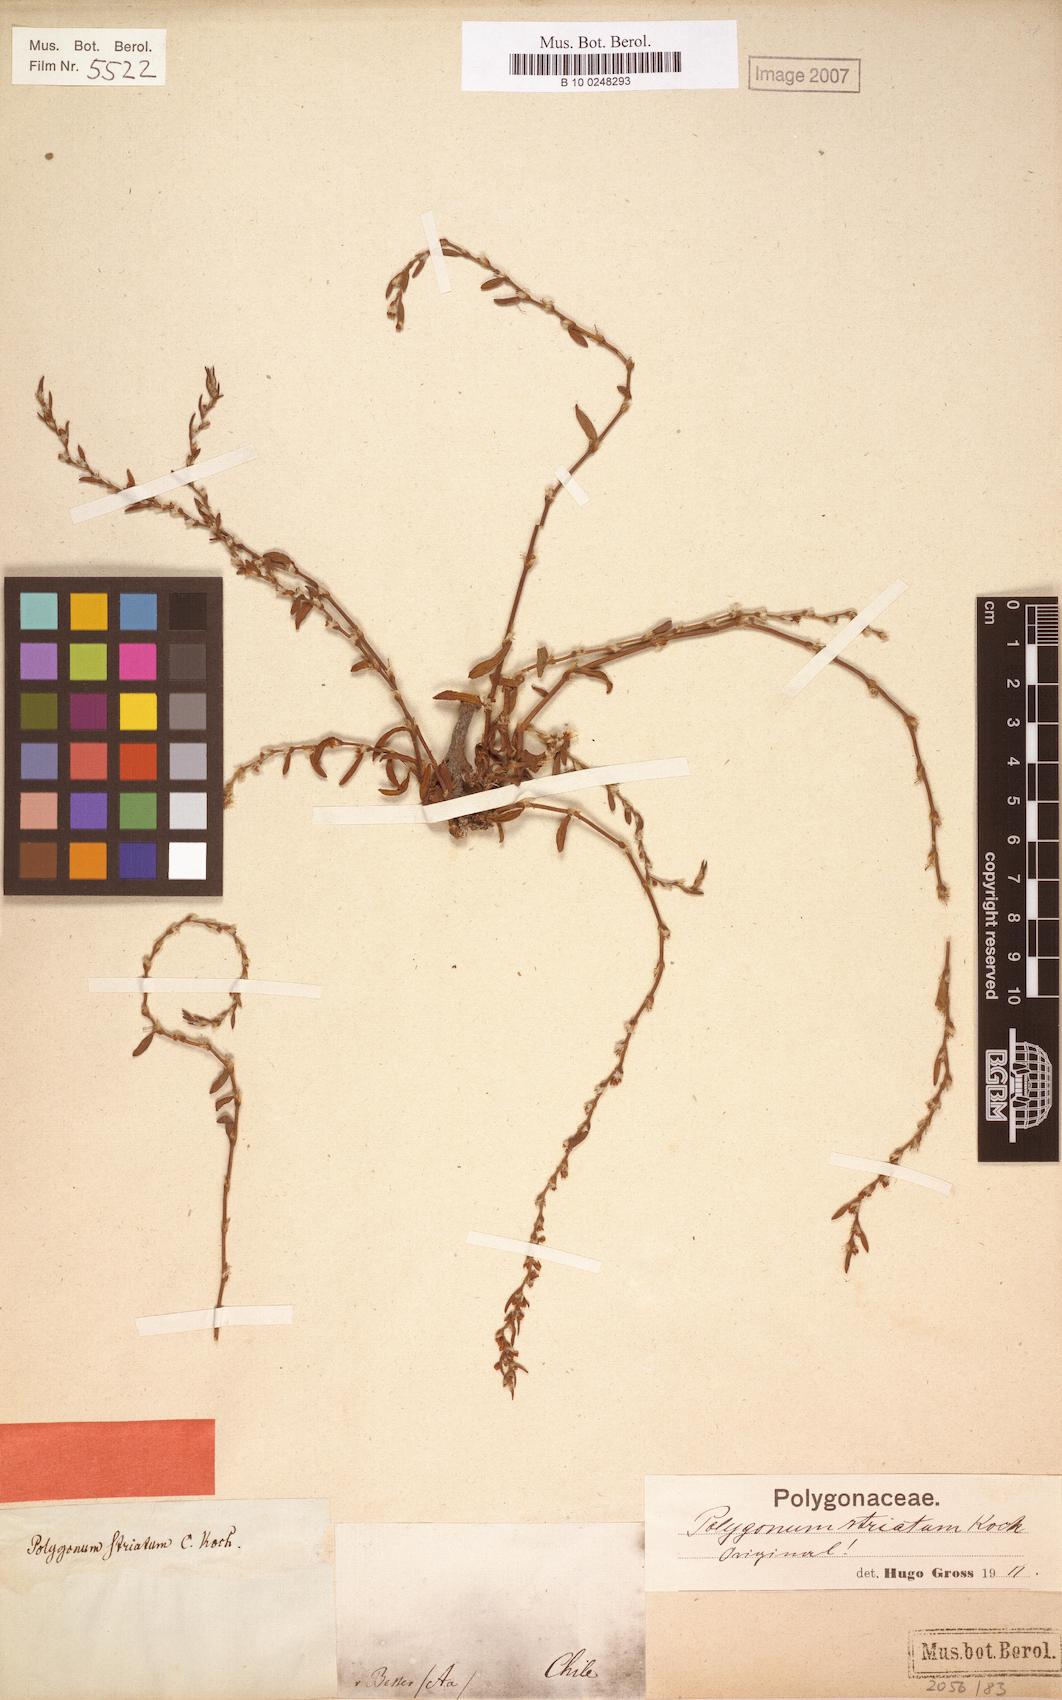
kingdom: Plantae
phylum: Tracheophyta
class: Magnoliopsida
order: Caryophyllales
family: Polygonaceae
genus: Polygonum
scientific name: Polygonum aviculare
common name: Prostrate knotweed
